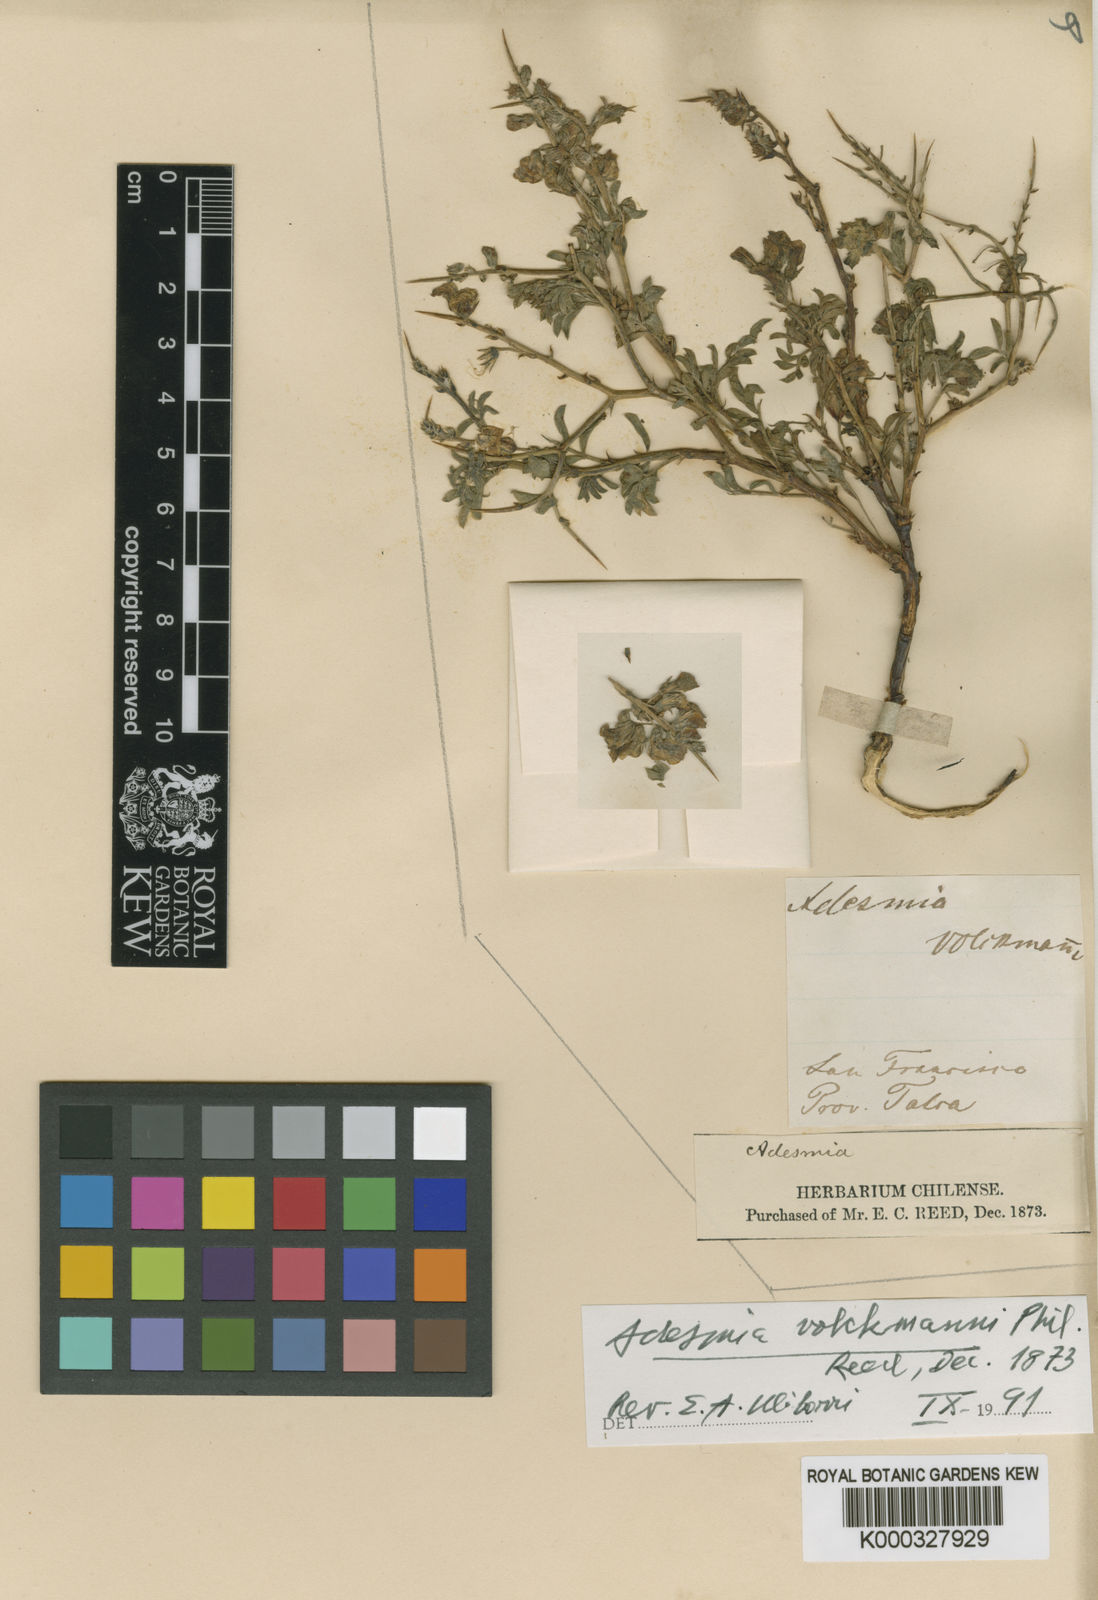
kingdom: Plantae
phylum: Tracheophyta
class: Magnoliopsida
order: Fabales
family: Fabaceae
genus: Adesmia
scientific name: Adesmia volckmannii
